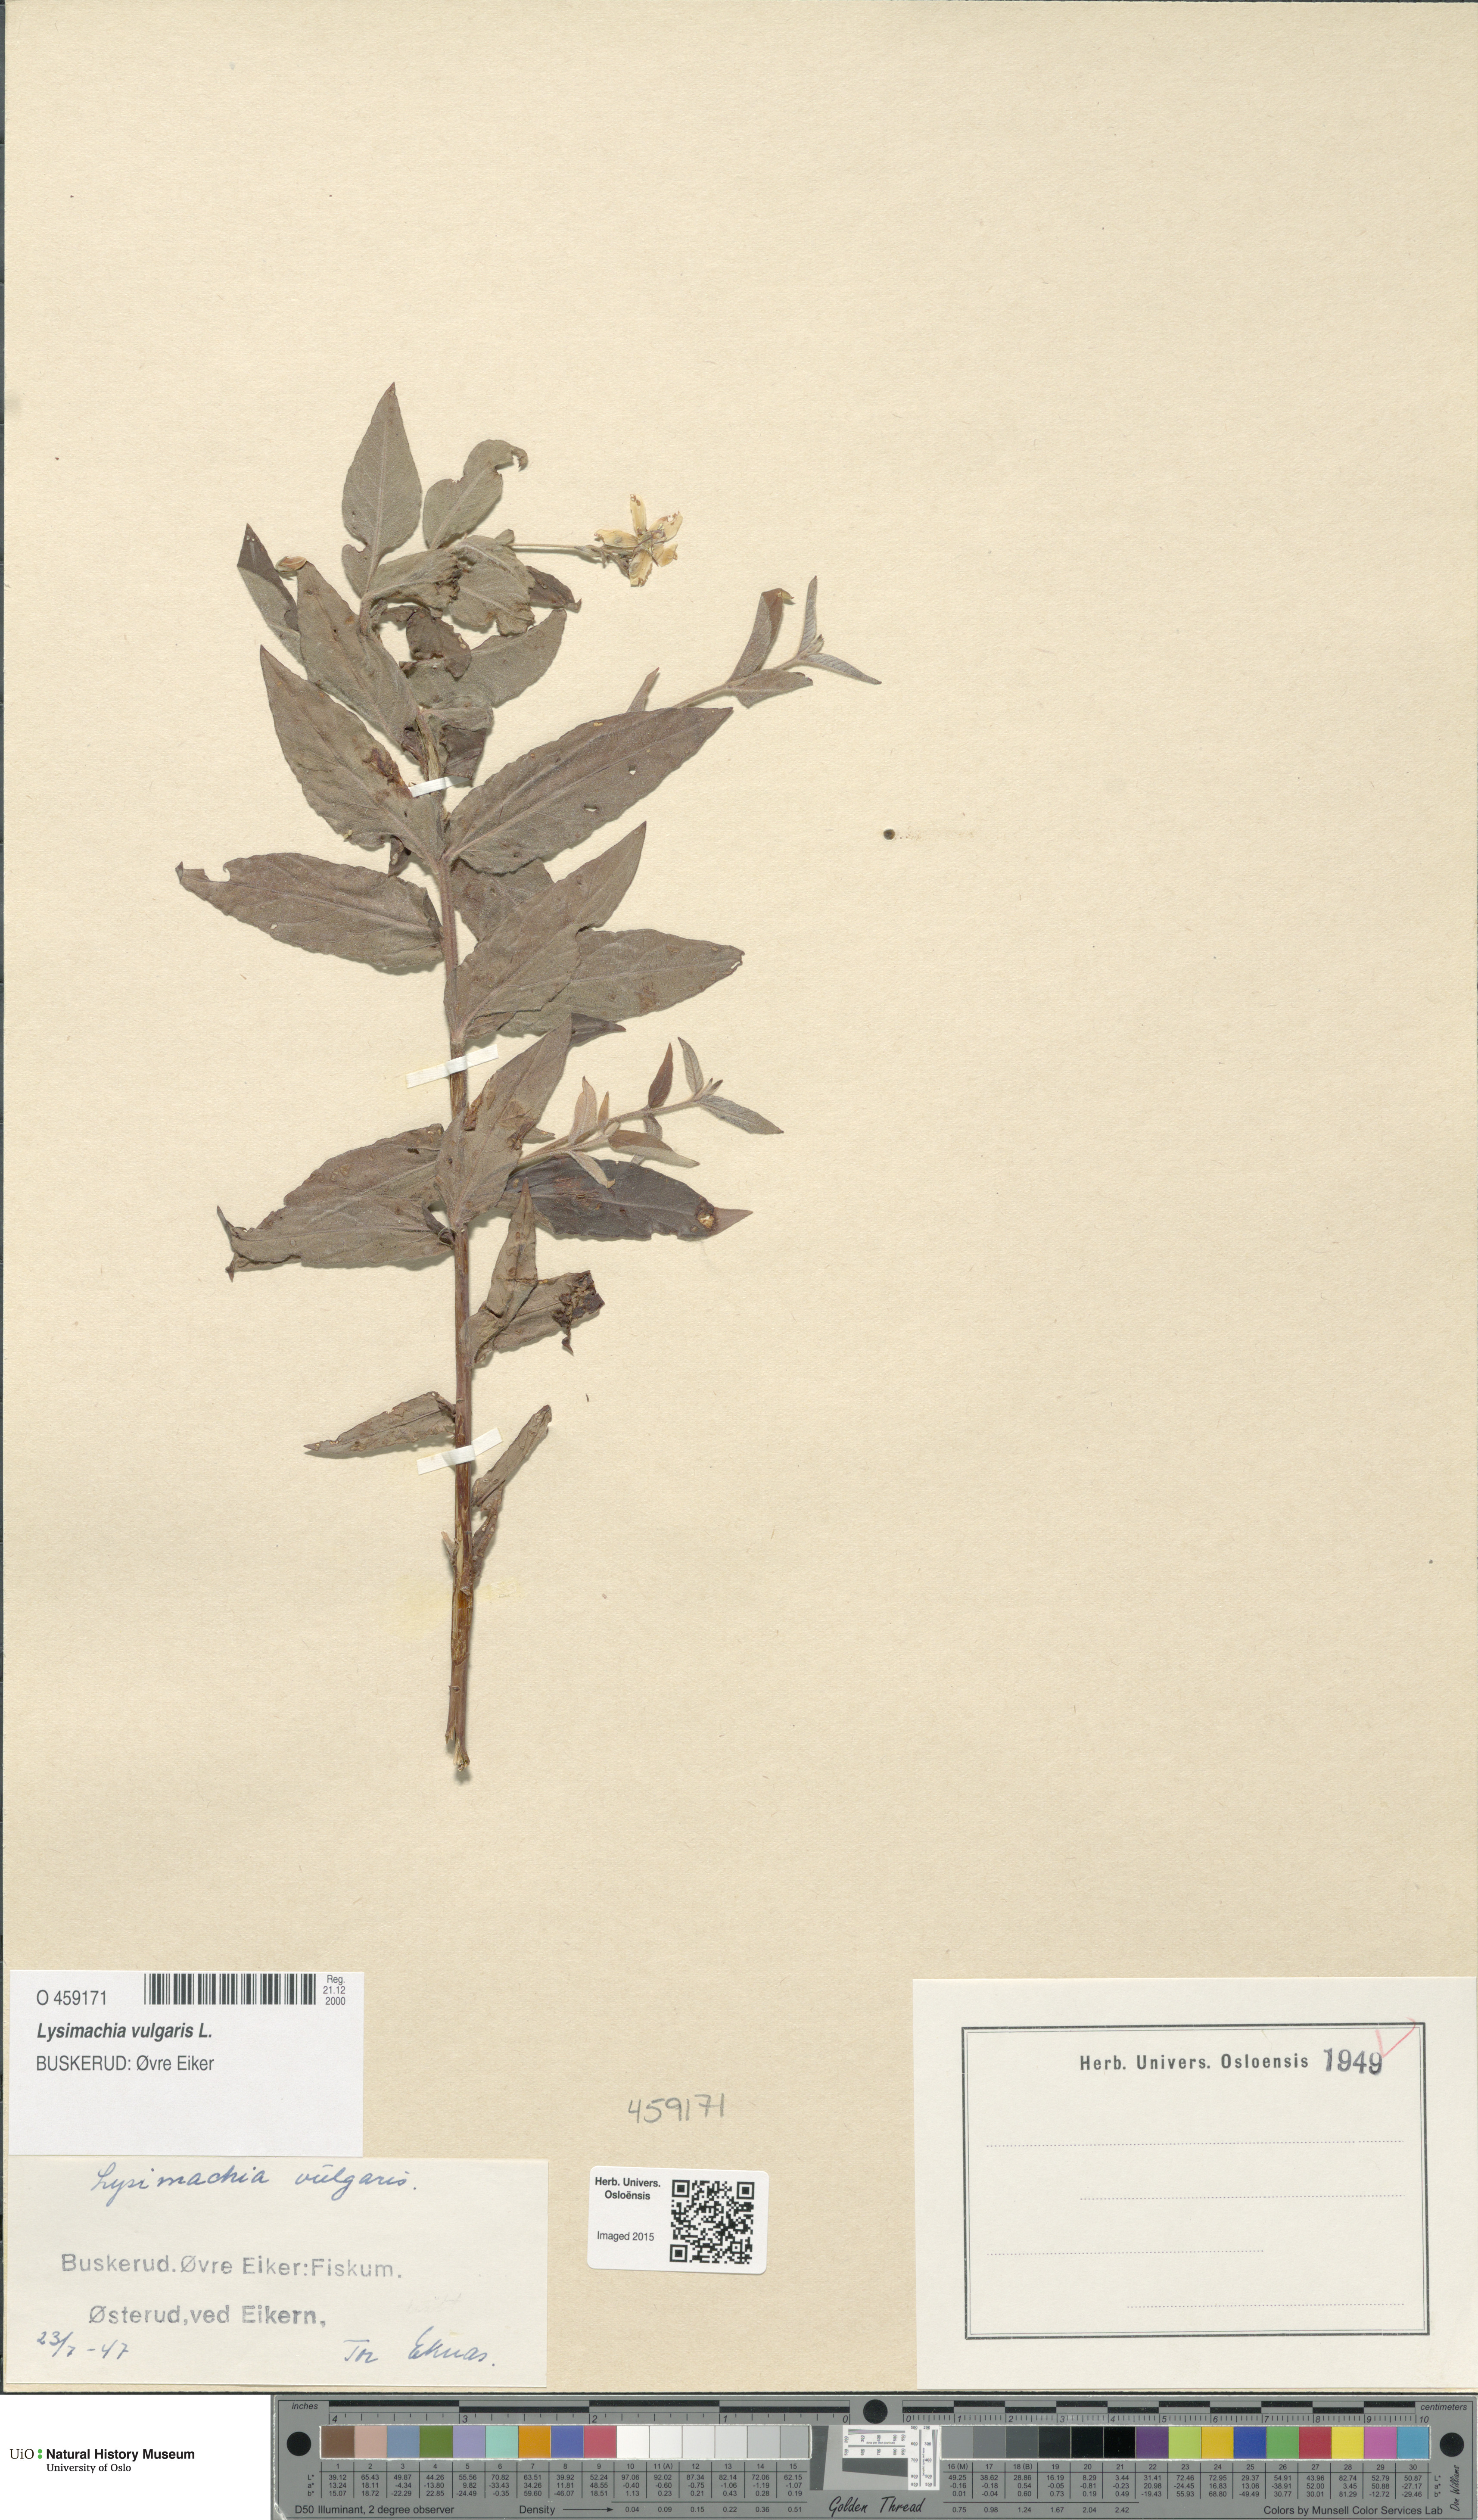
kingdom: Plantae
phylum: Tracheophyta
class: Magnoliopsida
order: Ericales
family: Primulaceae
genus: Lysimachia
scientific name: Lysimachia vulgaris
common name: Yellow loosestrife
